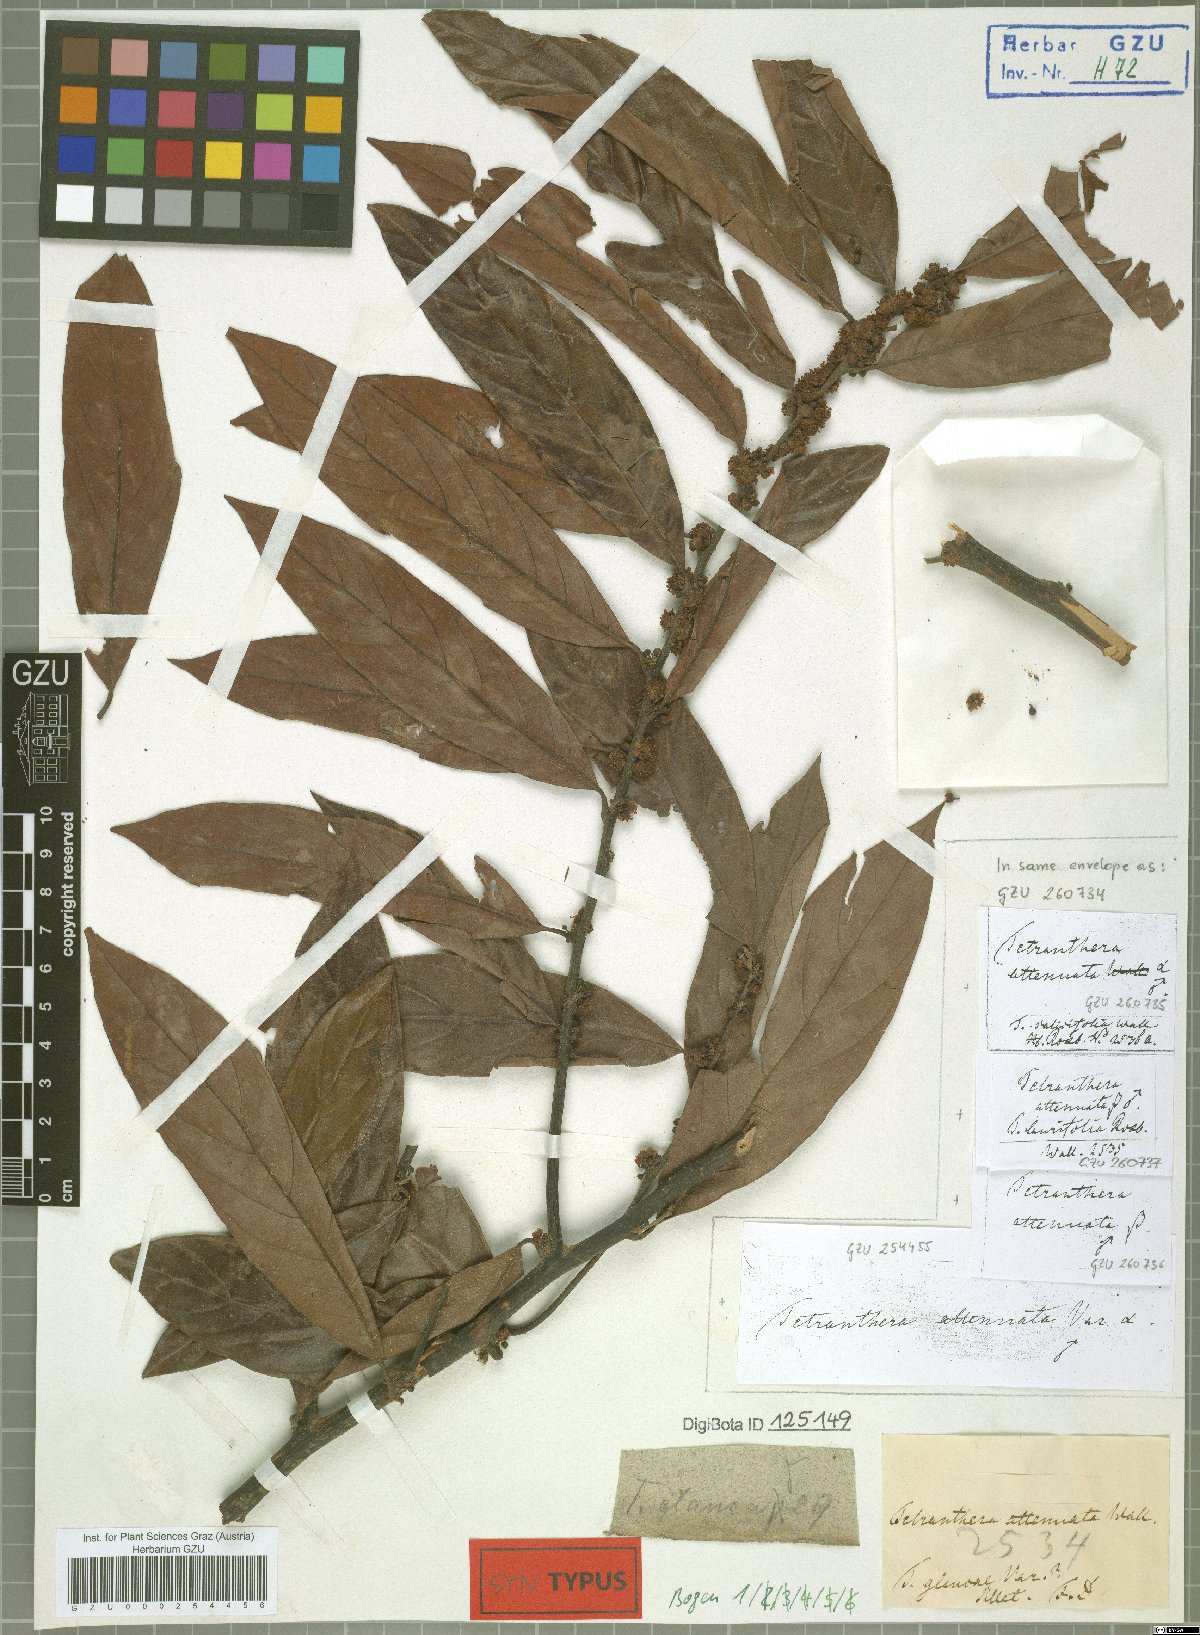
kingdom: Plantae
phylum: Tracheophyta
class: Magnoliopsida
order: Laurales
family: Lauraceae
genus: Litsea
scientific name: Litsea salicifolia
